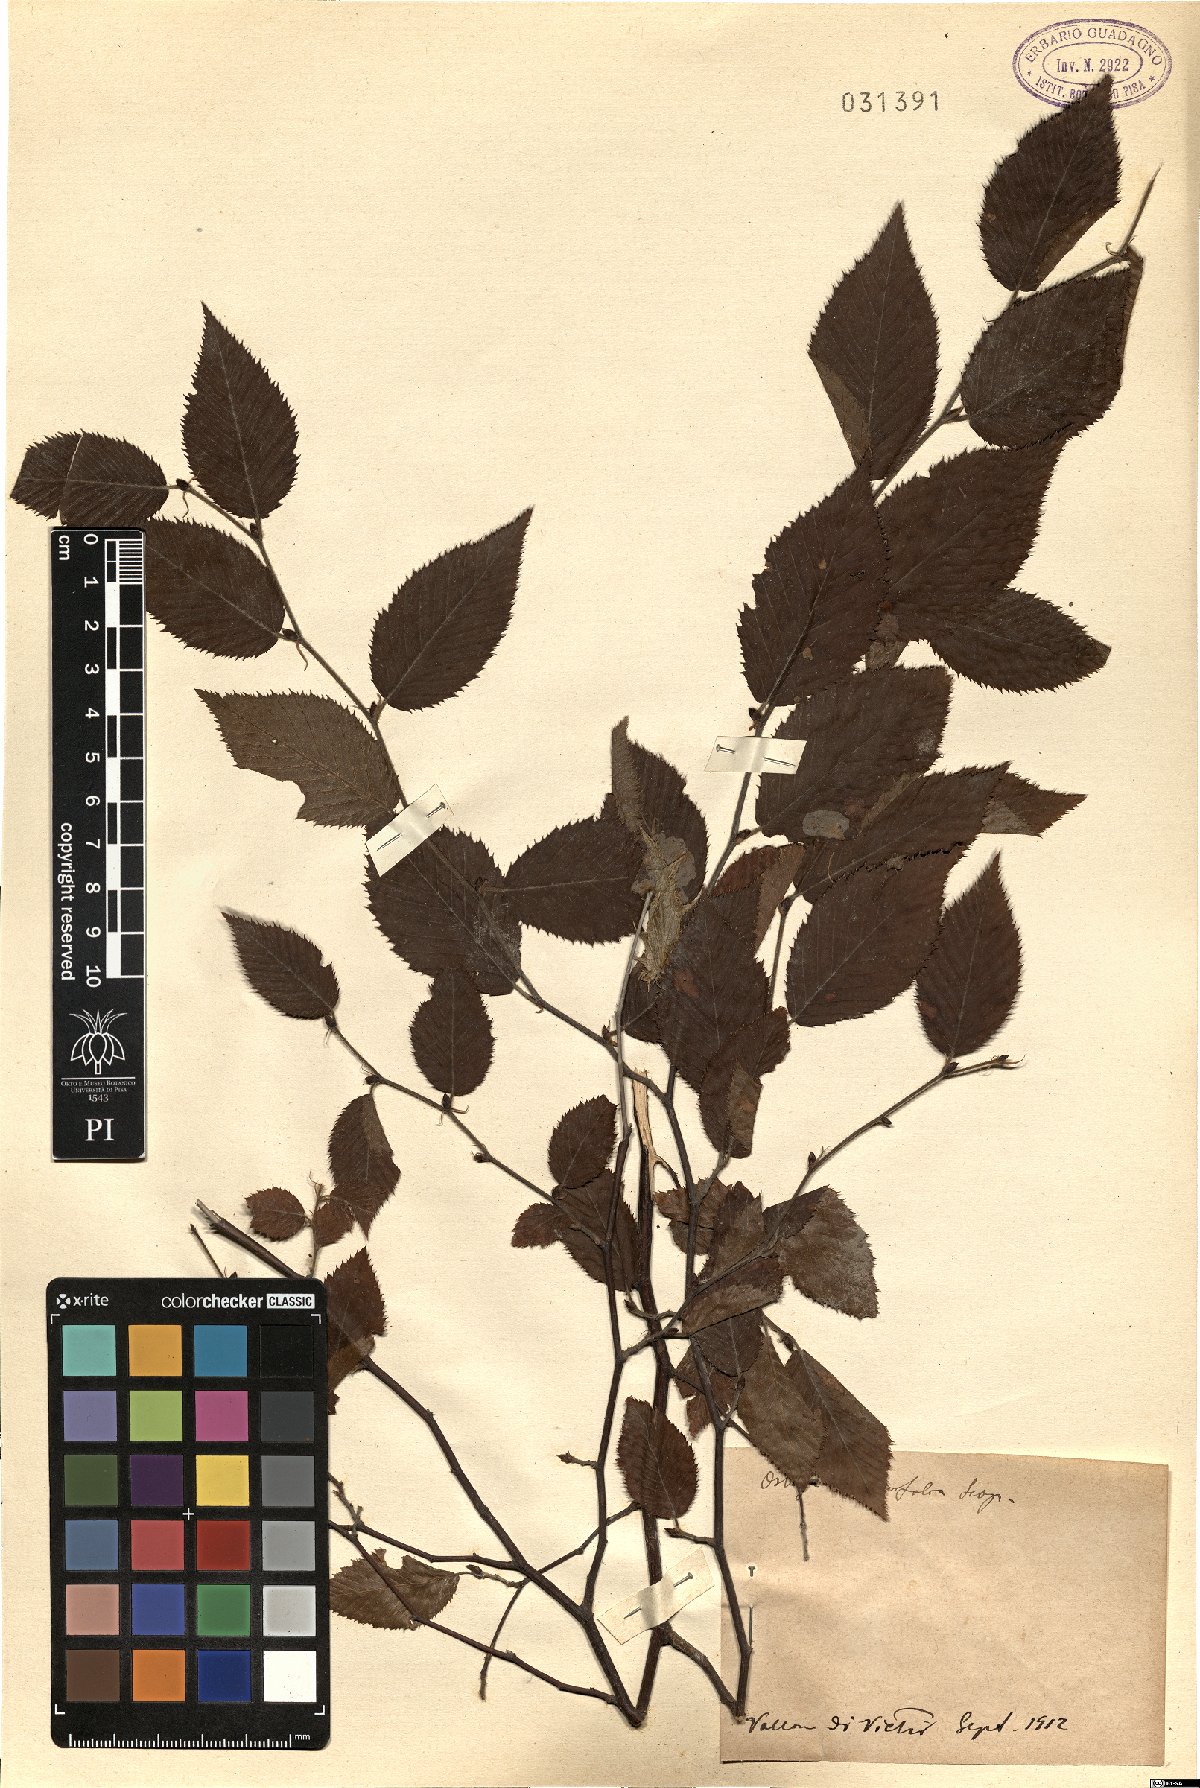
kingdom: Plantae
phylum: Tracheophyta
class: Magnoliopsida
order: Fagales
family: Betulaceae
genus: Ostrya
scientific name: Ostrya carpinifolia
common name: European hop-hornbeam
